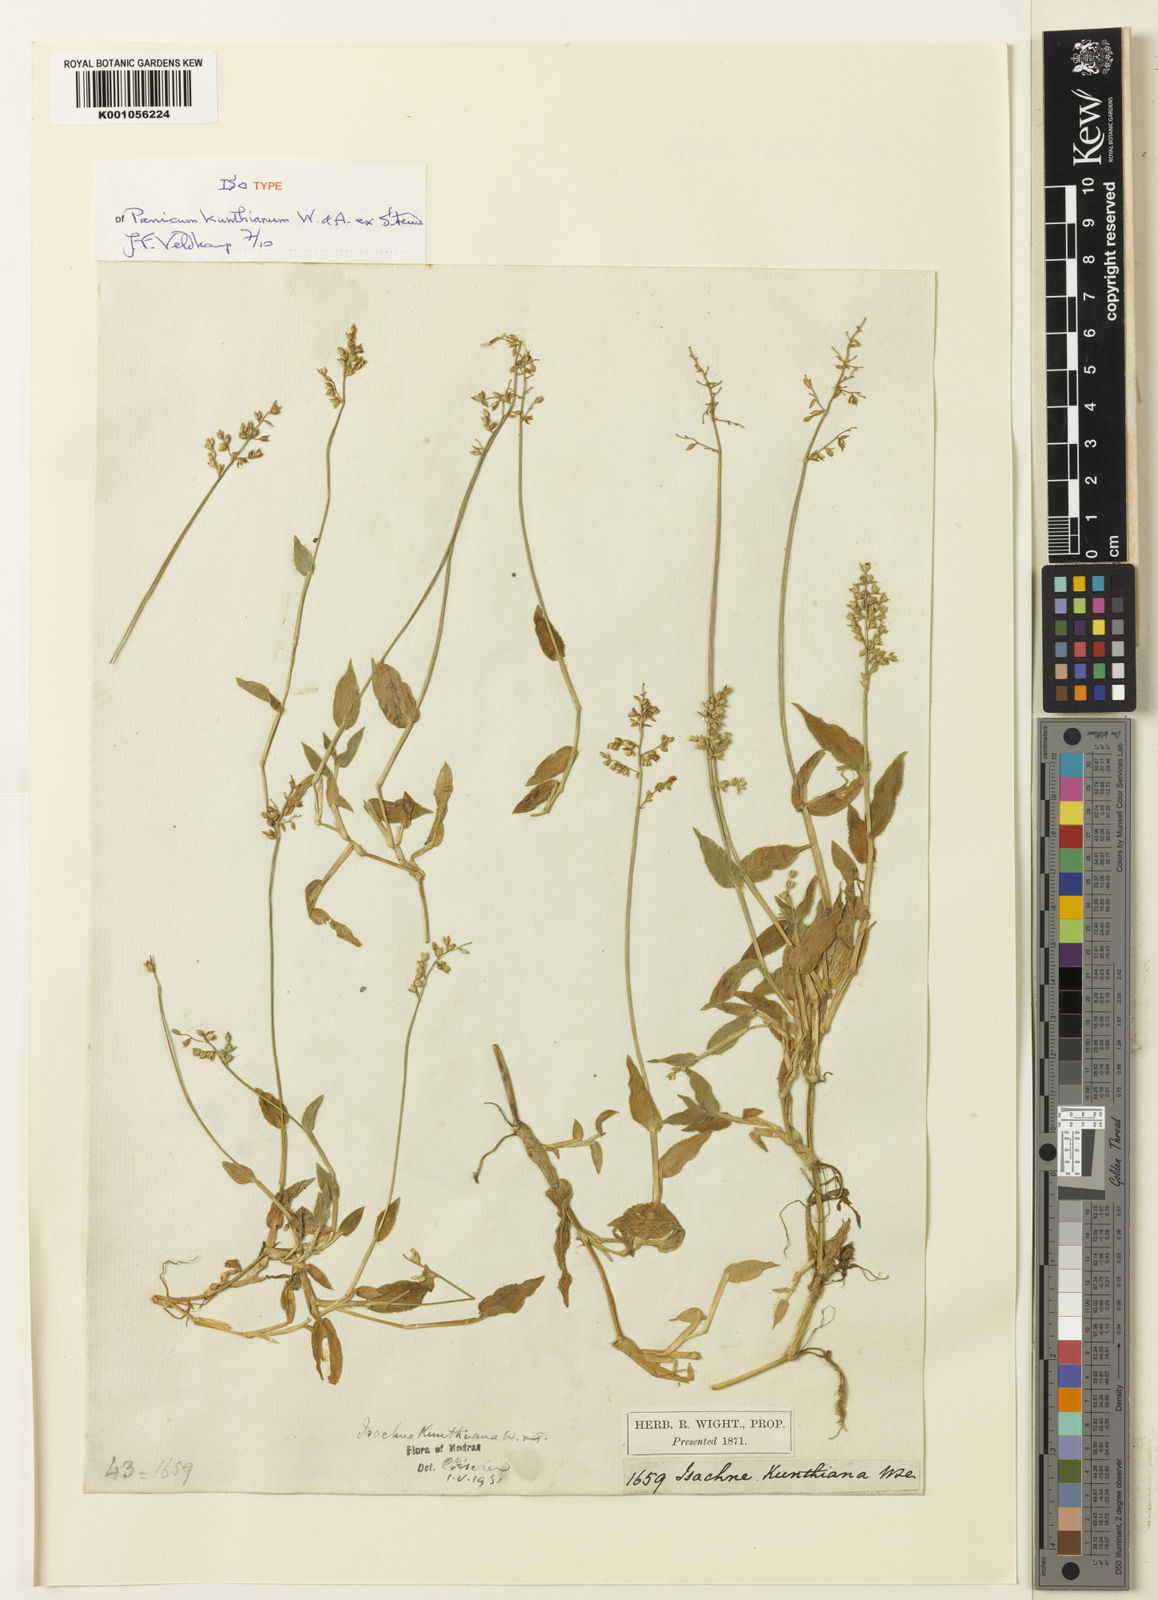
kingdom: Plantae
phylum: Tracheophyta
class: Liliopsida
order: Poales
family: Poaceae
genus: Isachne
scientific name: Isachne kunthiana
